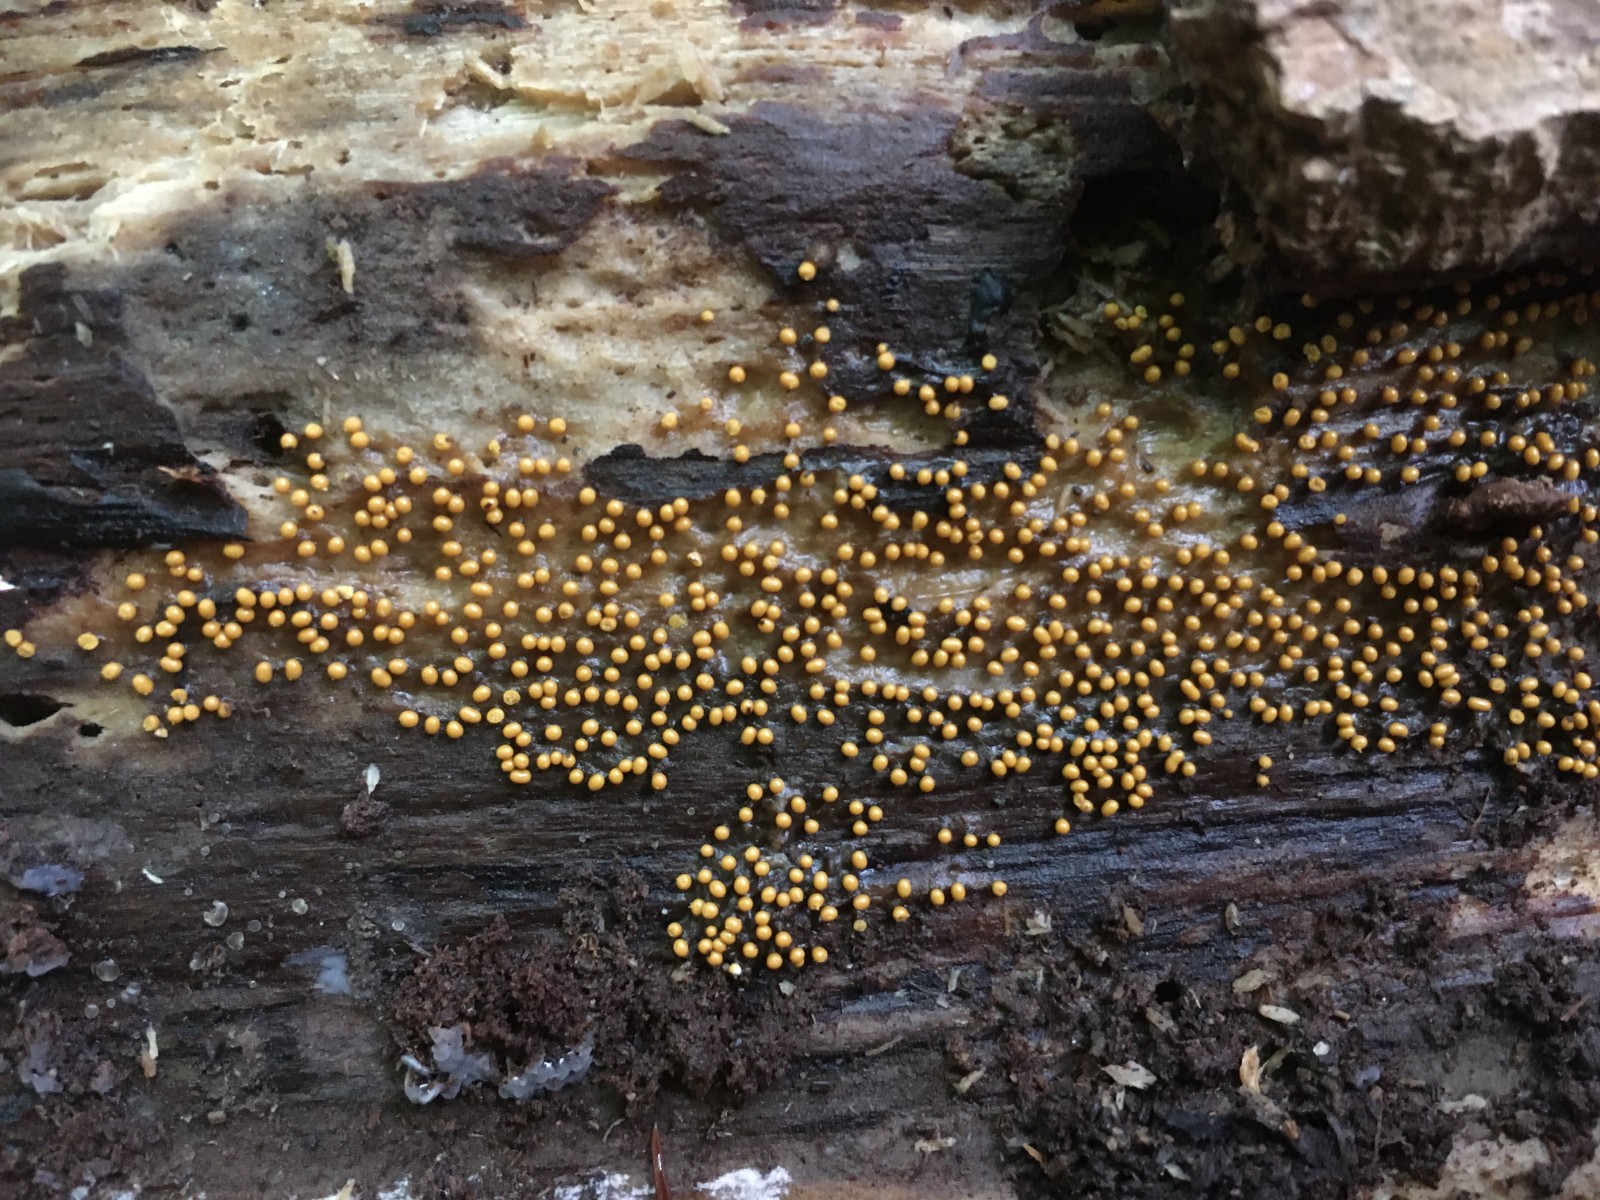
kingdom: Protozoa
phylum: Mycetozoa
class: Myxomycetes
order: Trichiales
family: Trichiaceae
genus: Trichia
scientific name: Trichia varia
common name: foranderlig hårbold
